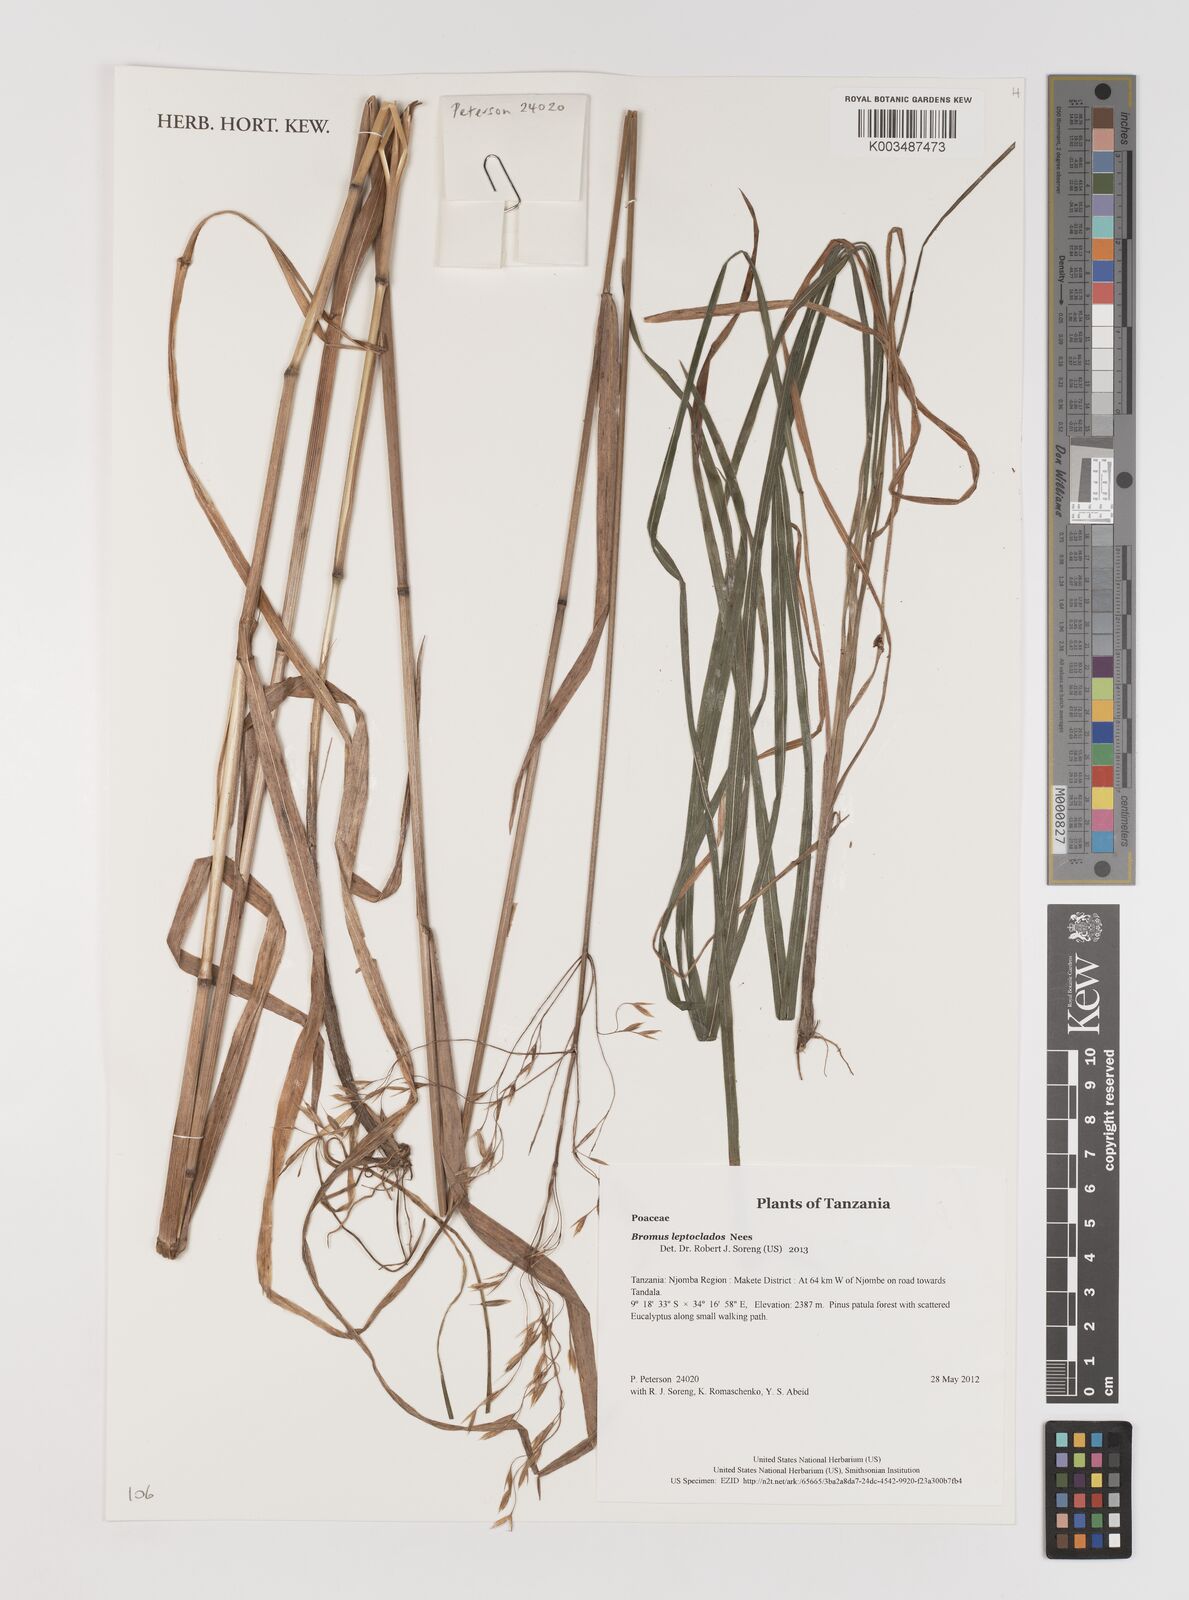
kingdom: Plantae
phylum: Tracheophyta
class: Liliopsida
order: Poales
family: Poaceae
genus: Bromus
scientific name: Bromus leptoclados
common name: Mountain bromegrass
